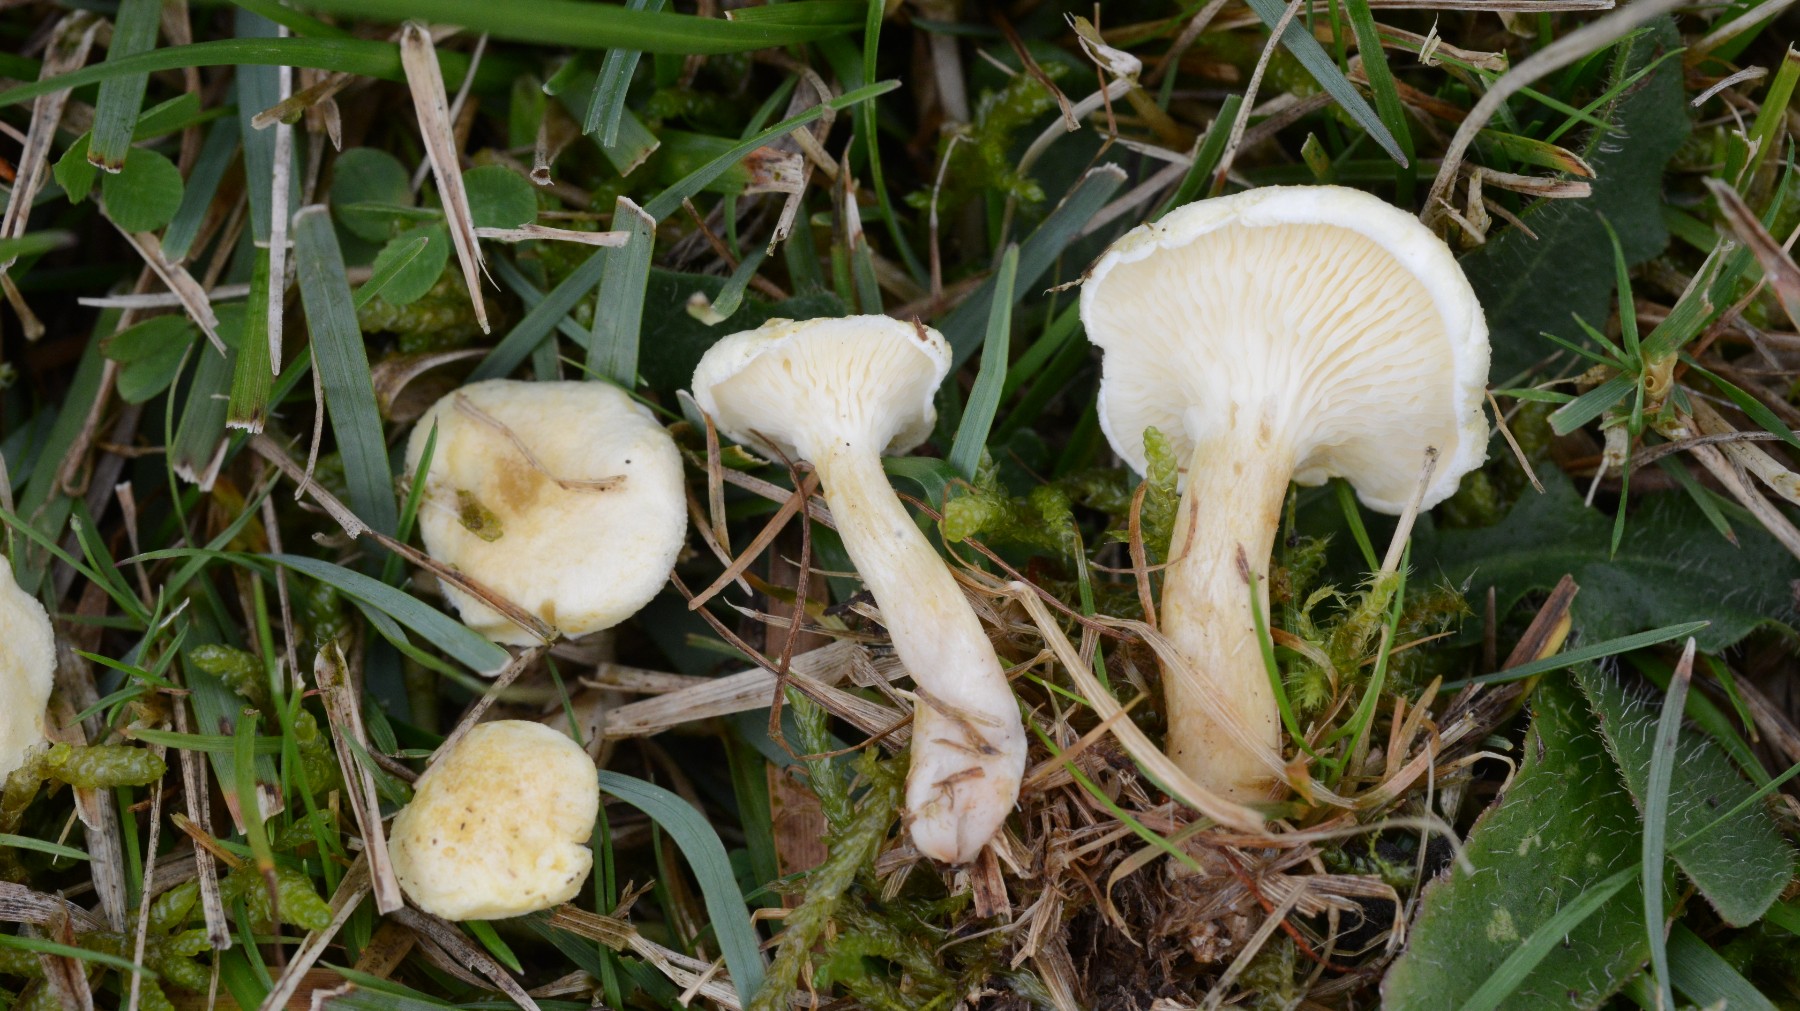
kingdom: Fungi
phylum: Basidiomycota
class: Agaricomycetes
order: Boletales
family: Hygrophoropsidaceae
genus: Hygrophoropsis
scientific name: Hygrophoropsis pallida
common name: bleg orangekantarel
